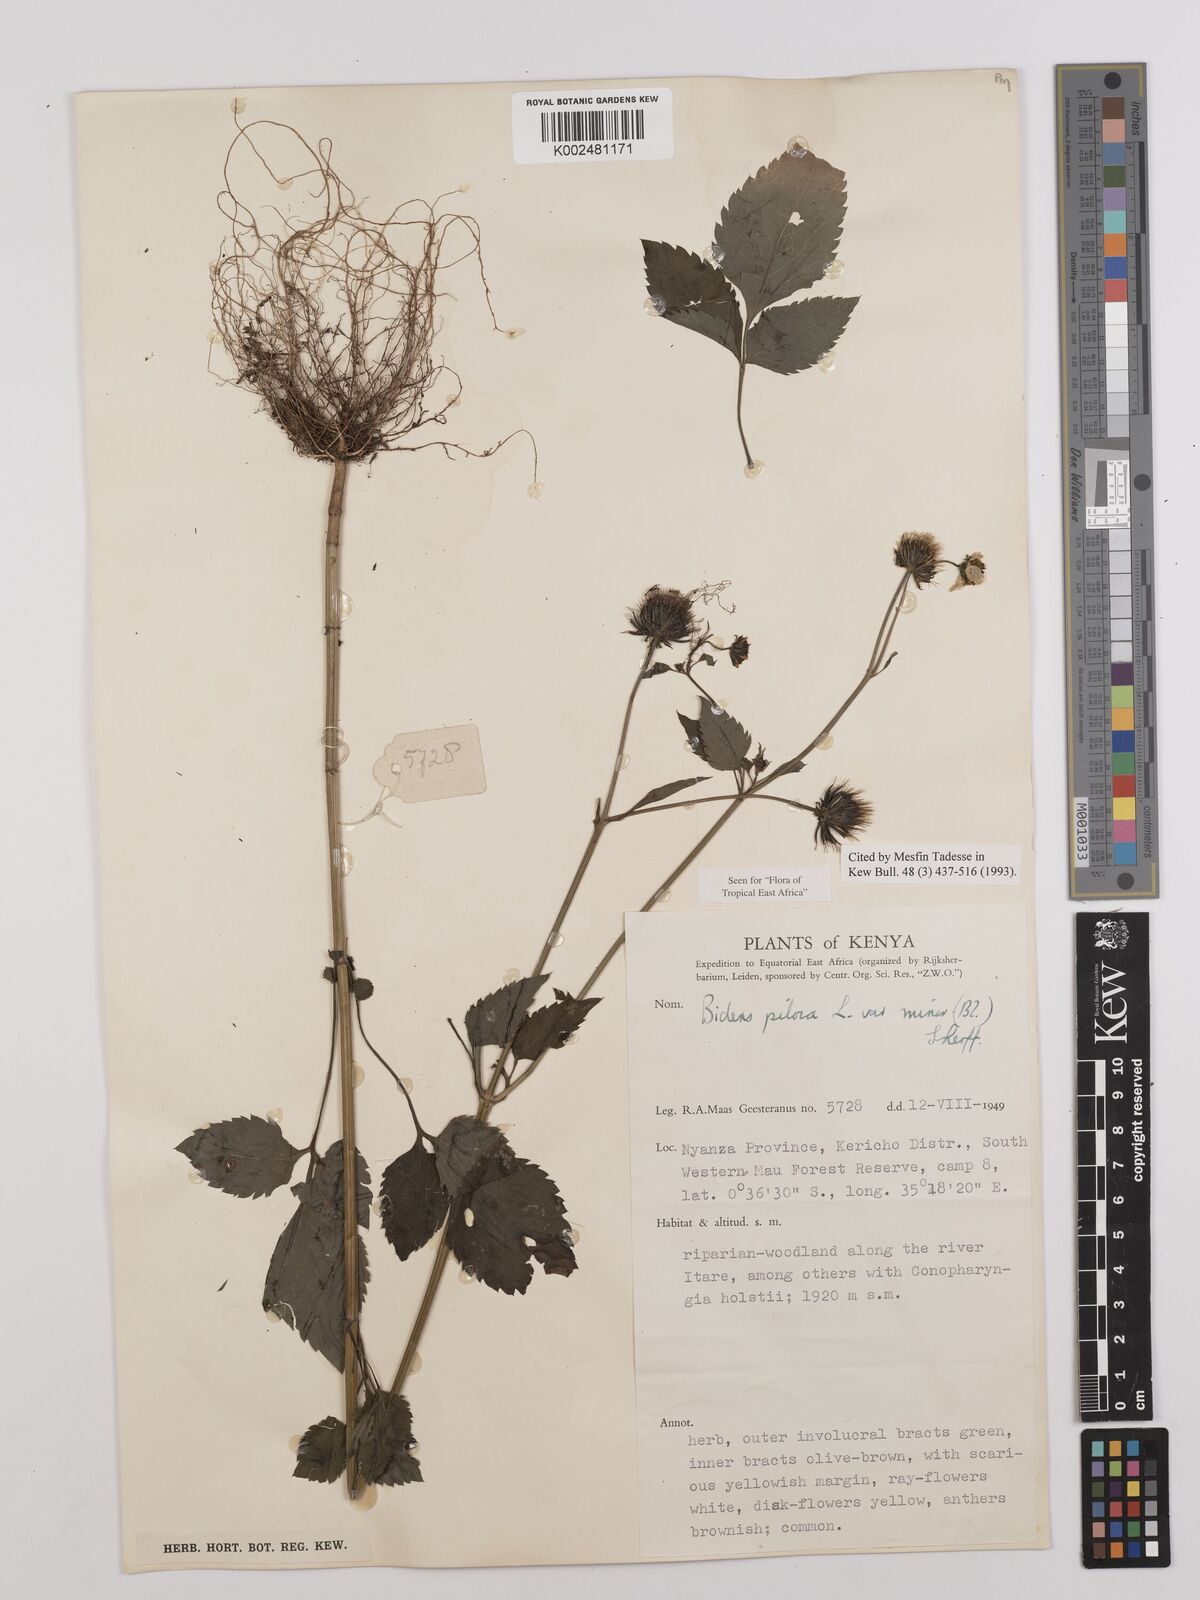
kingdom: Plantae
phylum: Tracheophyta
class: Magnoliopsida
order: Asterales
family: Asteraceae
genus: Bidens
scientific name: Bidens pilosa
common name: Black-jack
